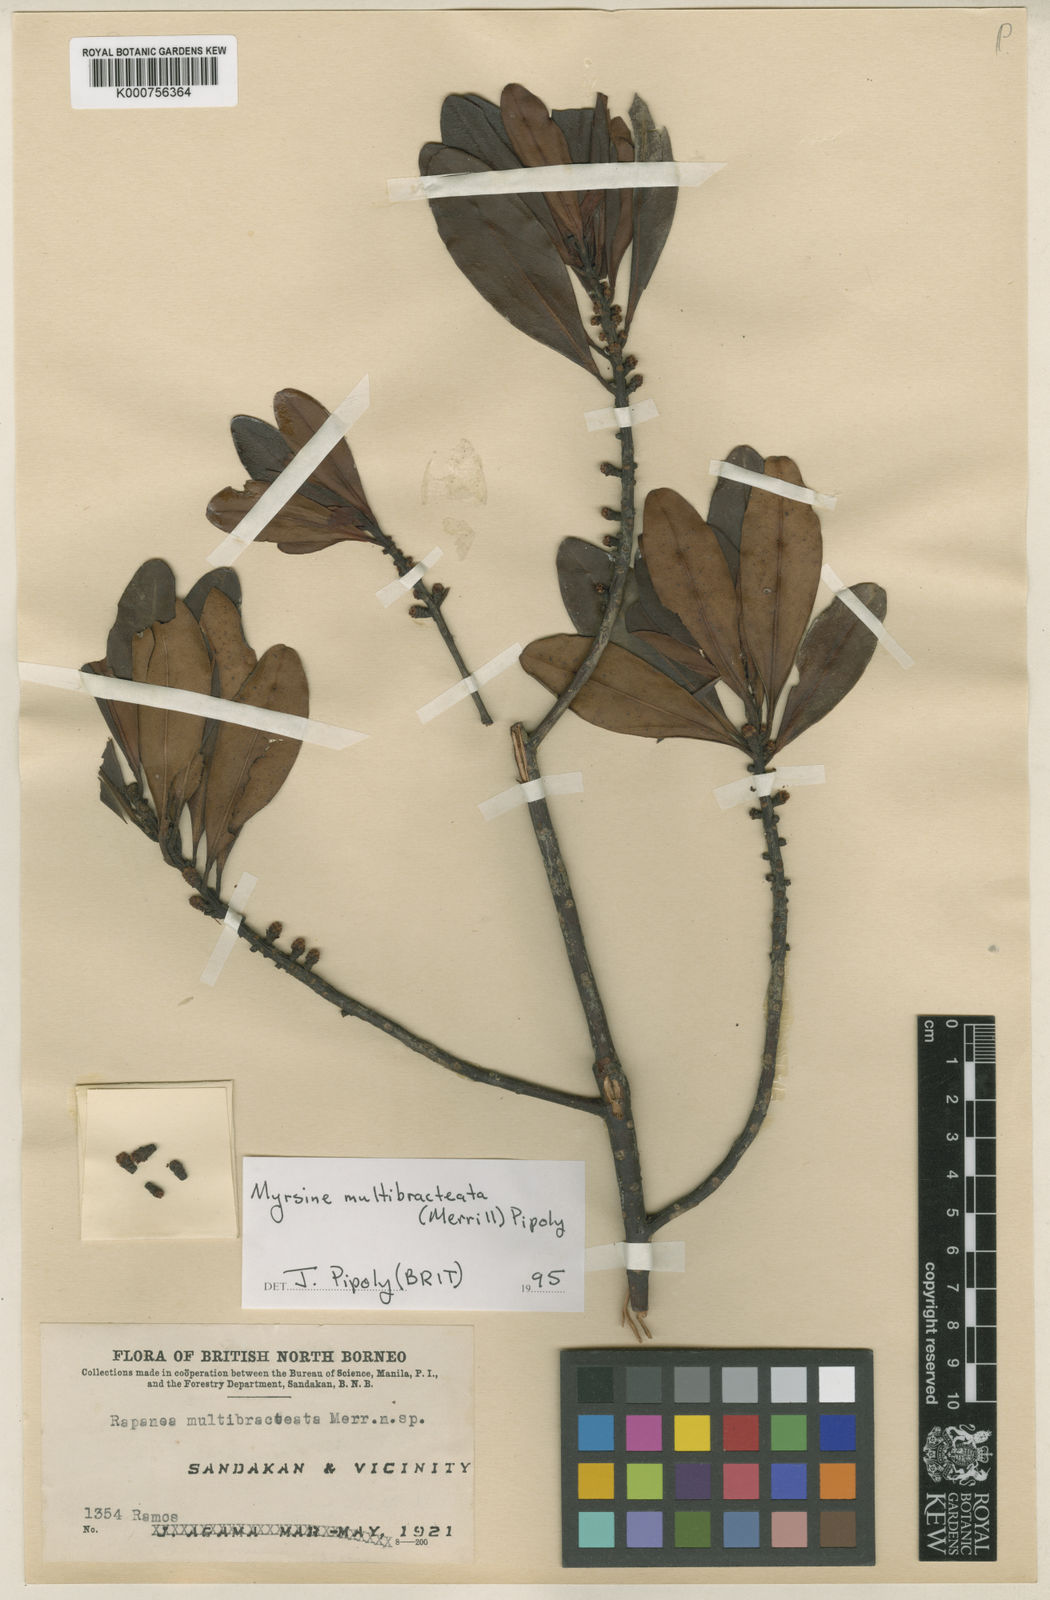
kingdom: Plantae
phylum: Tracheophyta
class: Magnoliopsida
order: Ericales
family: Primulaceae
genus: Myrsine
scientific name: Myrsine multibracteata
